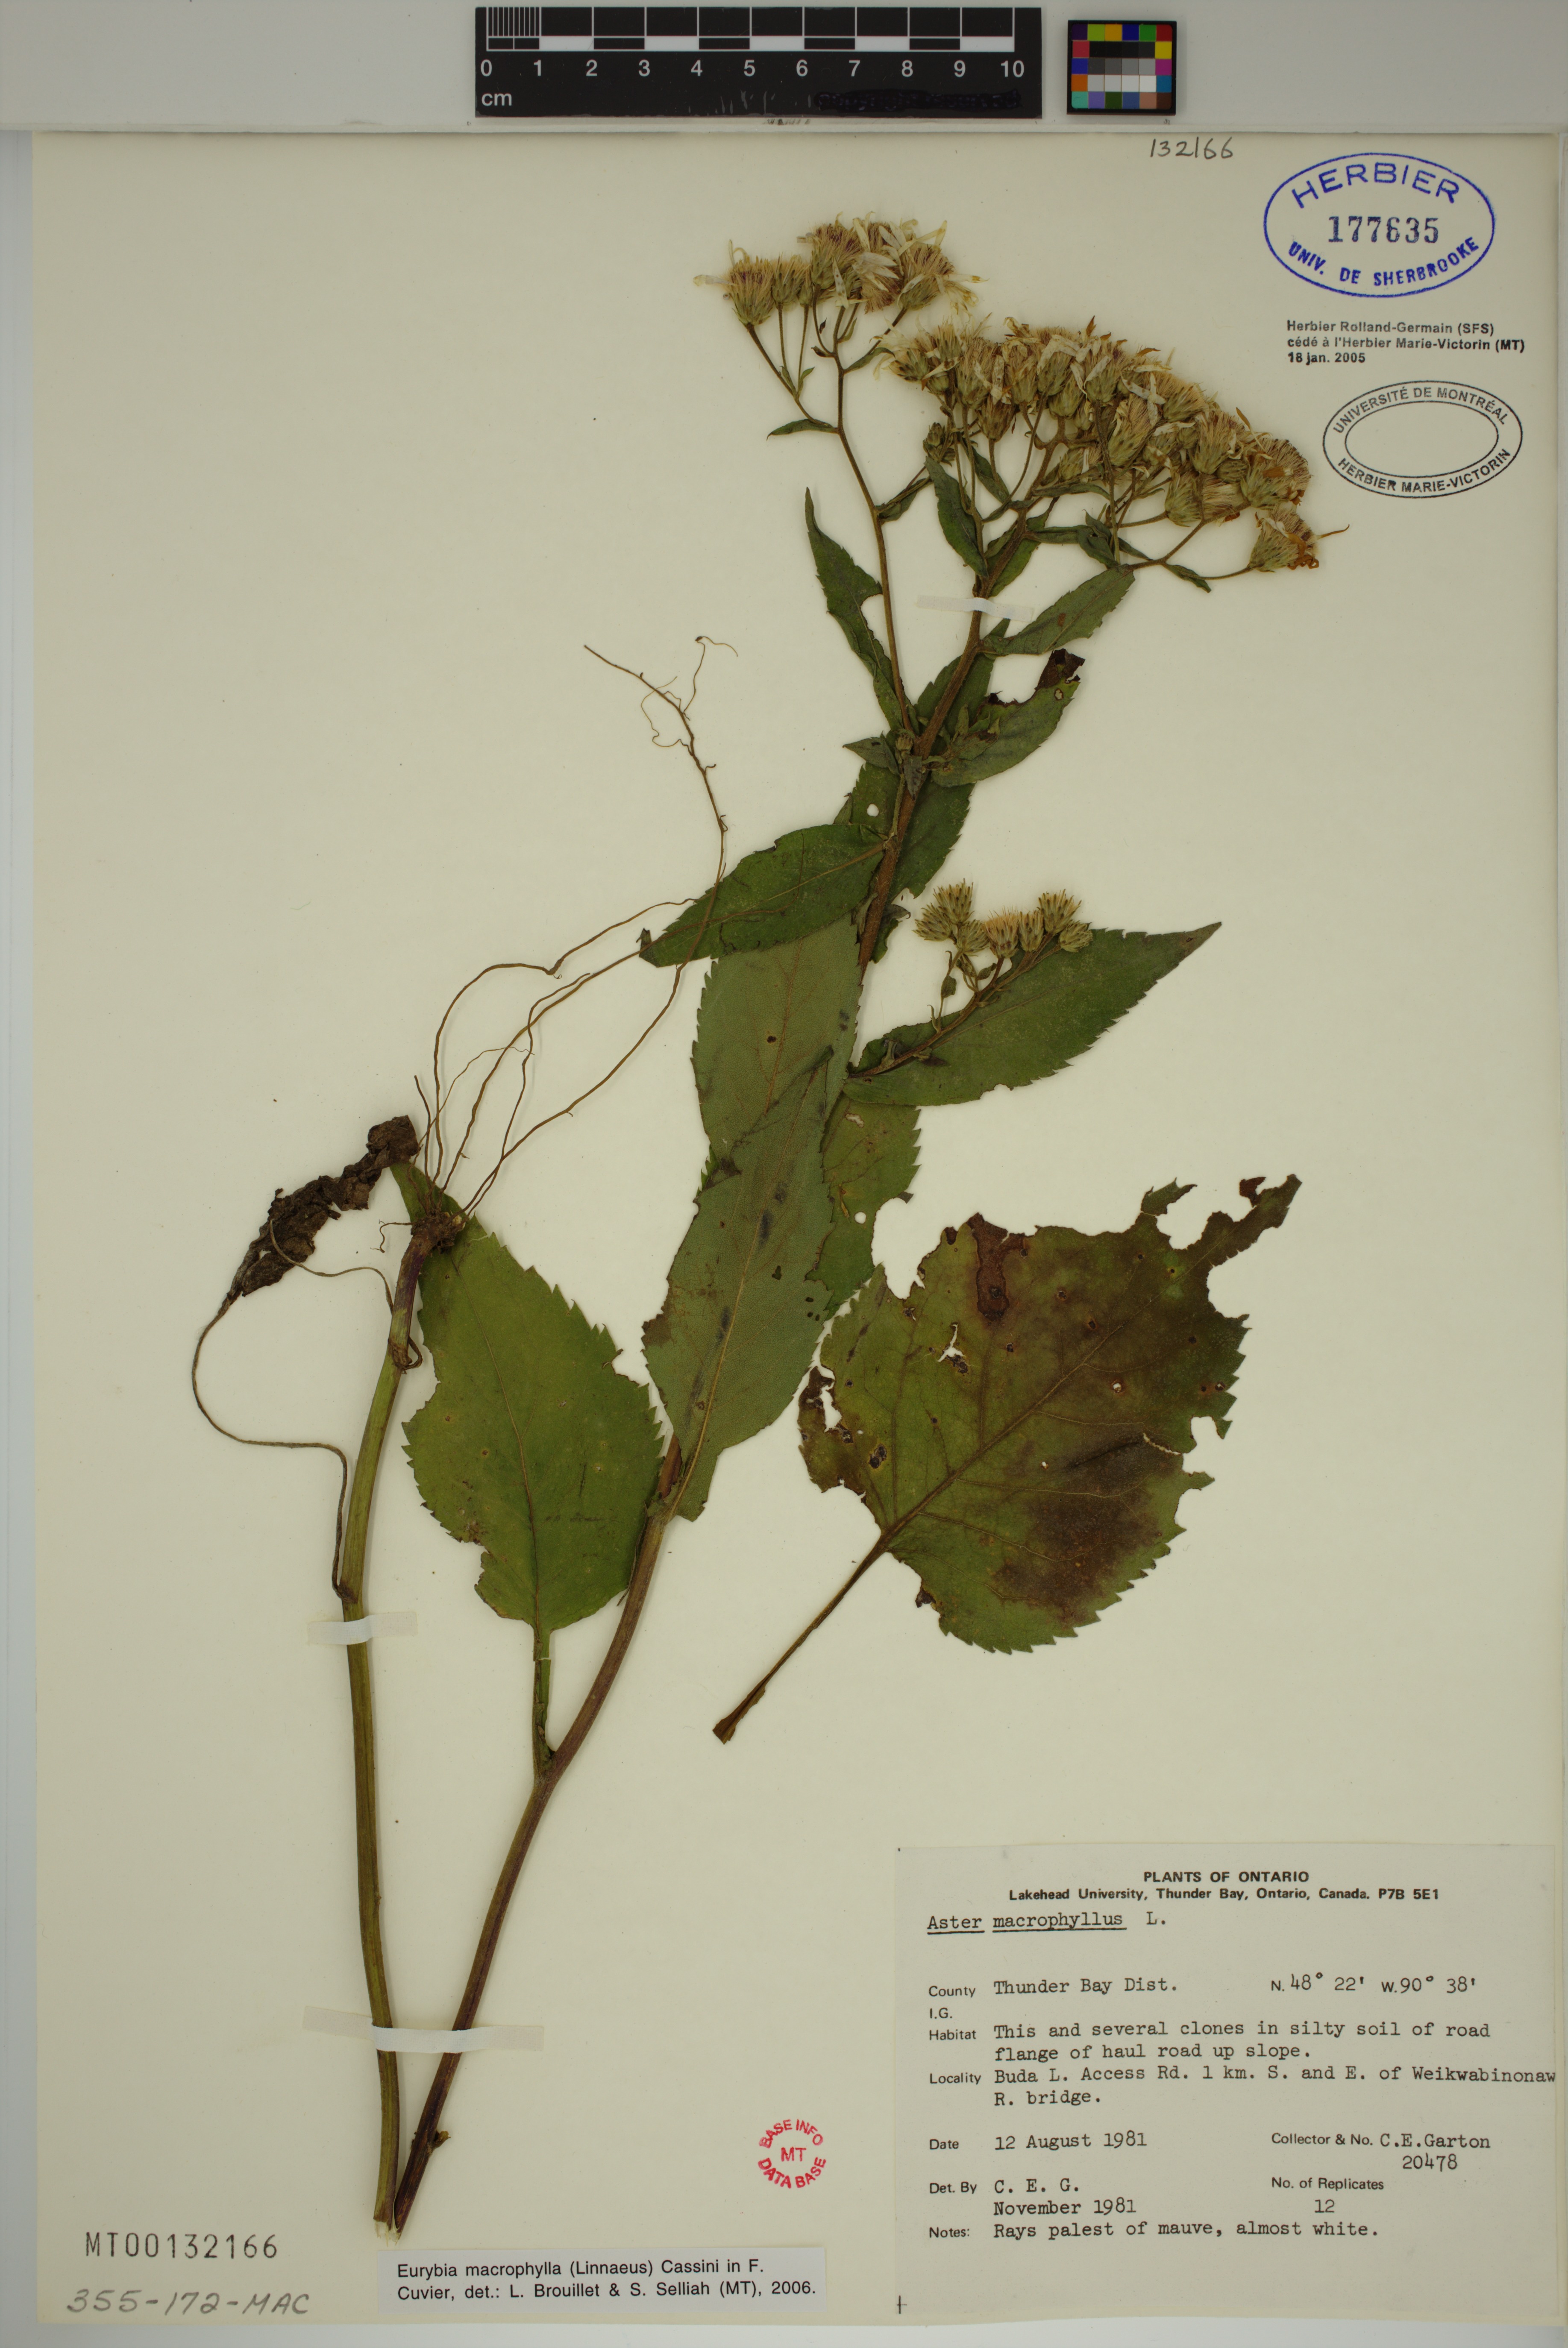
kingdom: Plantae
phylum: Tracheophyta
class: Magnoliopsida
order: Asterales
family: Asteraceae
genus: Eurybia
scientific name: Eurybia macrophylla
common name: Big-leaved aster
